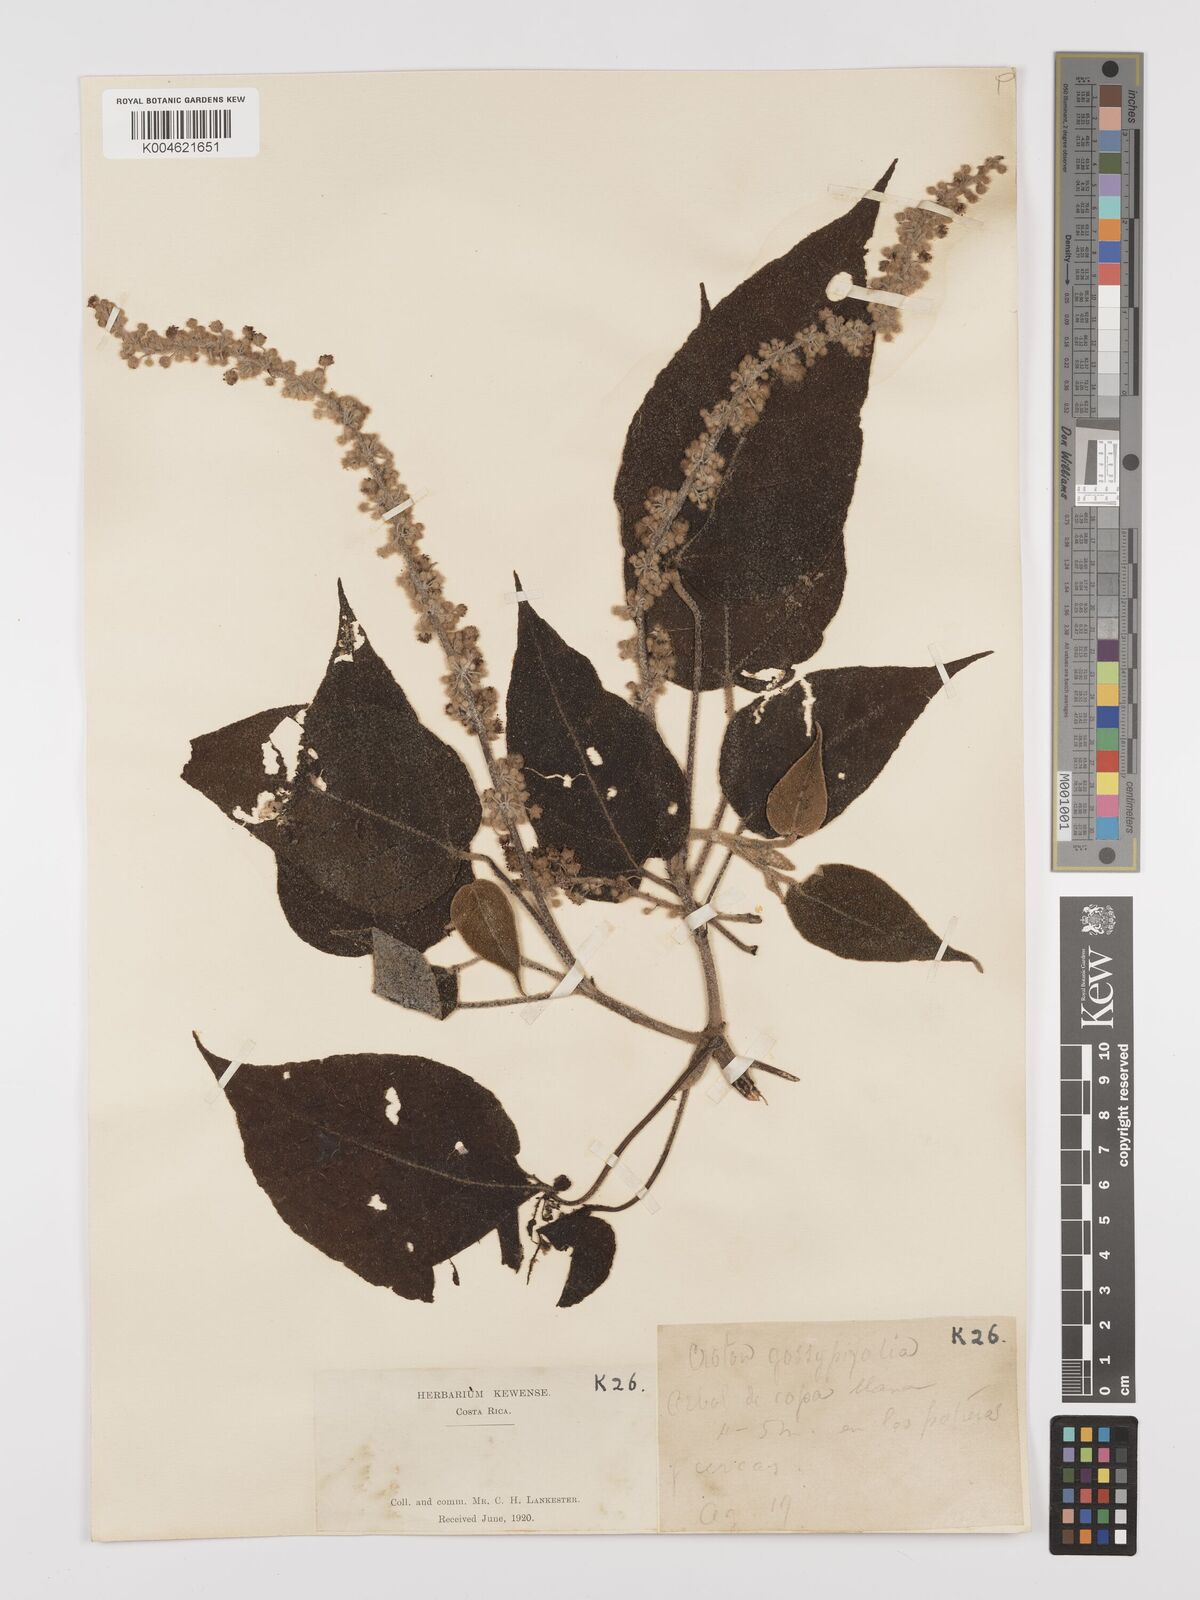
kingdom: Plantae
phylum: Tracheophyta
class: Magnoliopsida
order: Malpighiales
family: Euphorbiaceae
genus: Croton
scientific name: Croton draco
